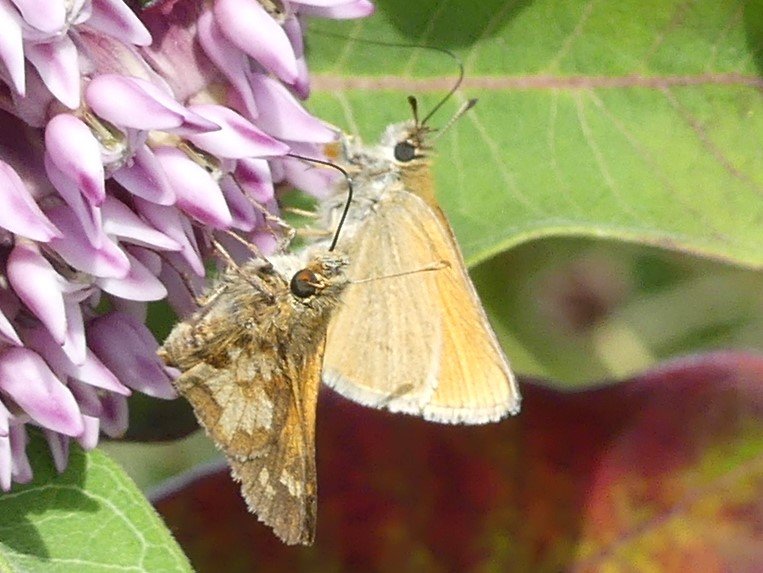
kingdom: Animalia
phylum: Arthropoda
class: Insecta
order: Lepidoptera
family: Hesperiidae
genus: Thymelicus
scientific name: Thymelicus lineola
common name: European Skipper
